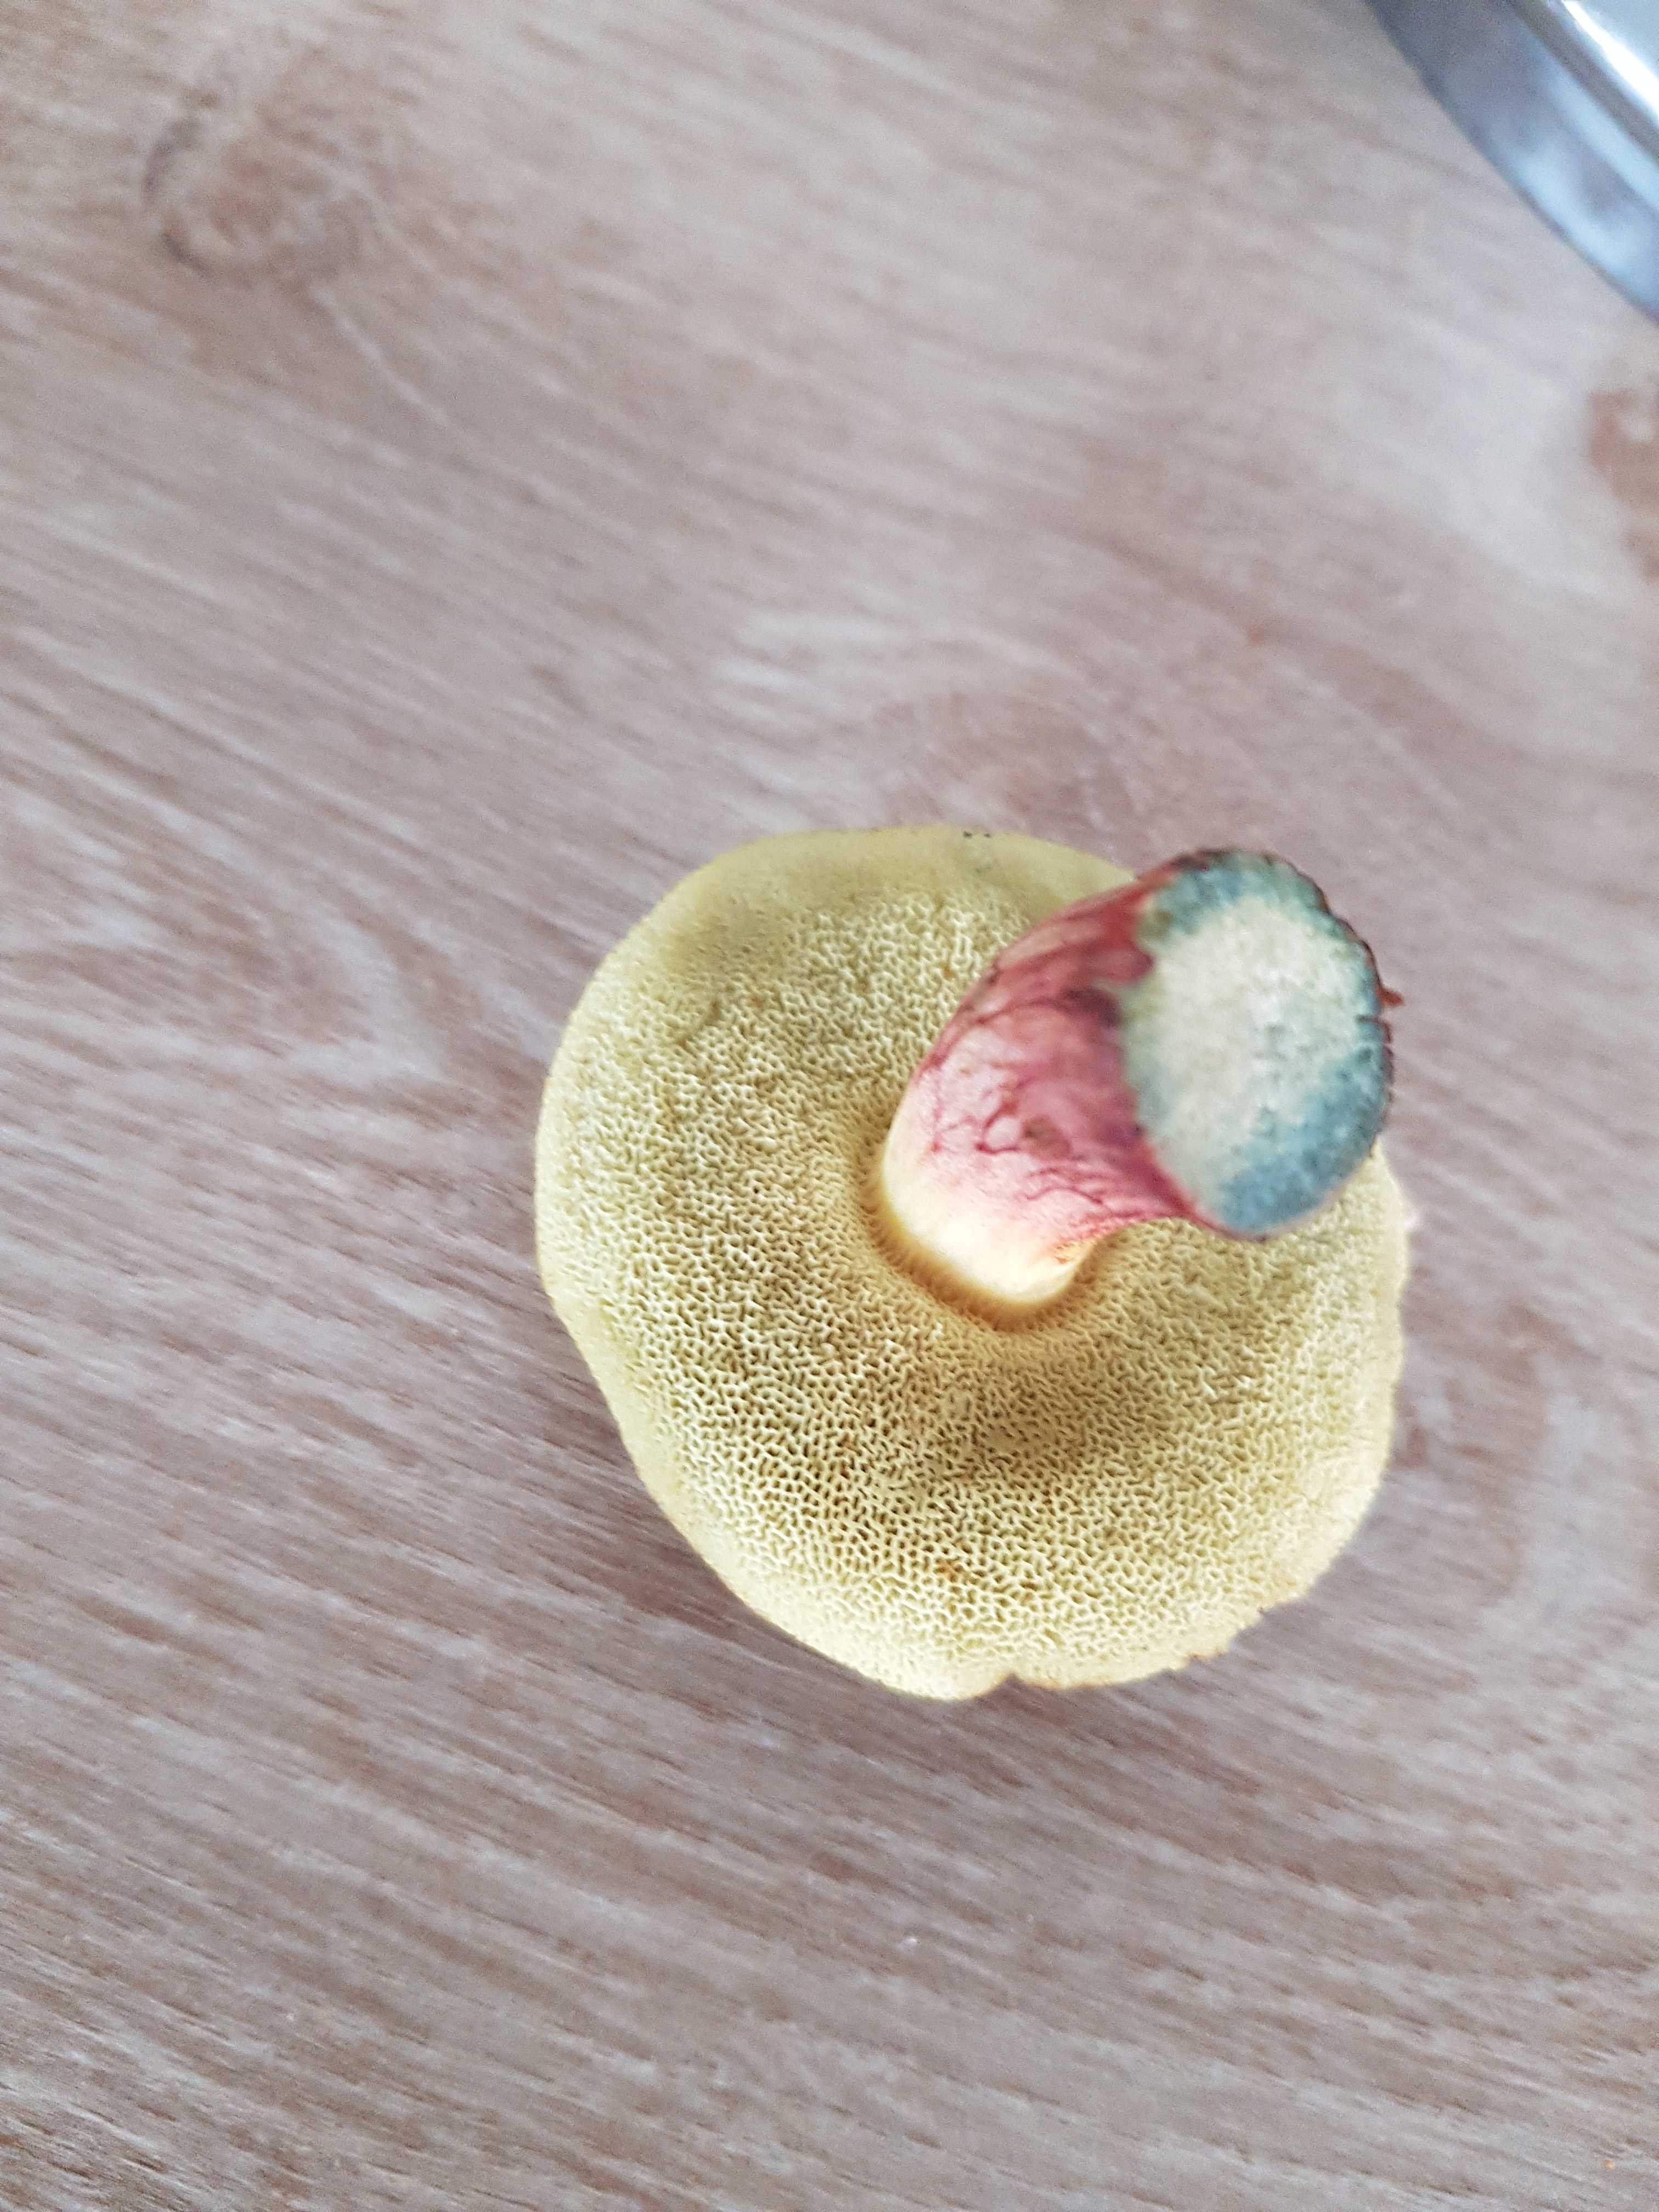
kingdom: Fungi
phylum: Basidiomycota
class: Agaricomycetes
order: Boletales
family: Boletaceae
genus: Xerocomellus
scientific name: Xerocomellus
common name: dværgrørhat
